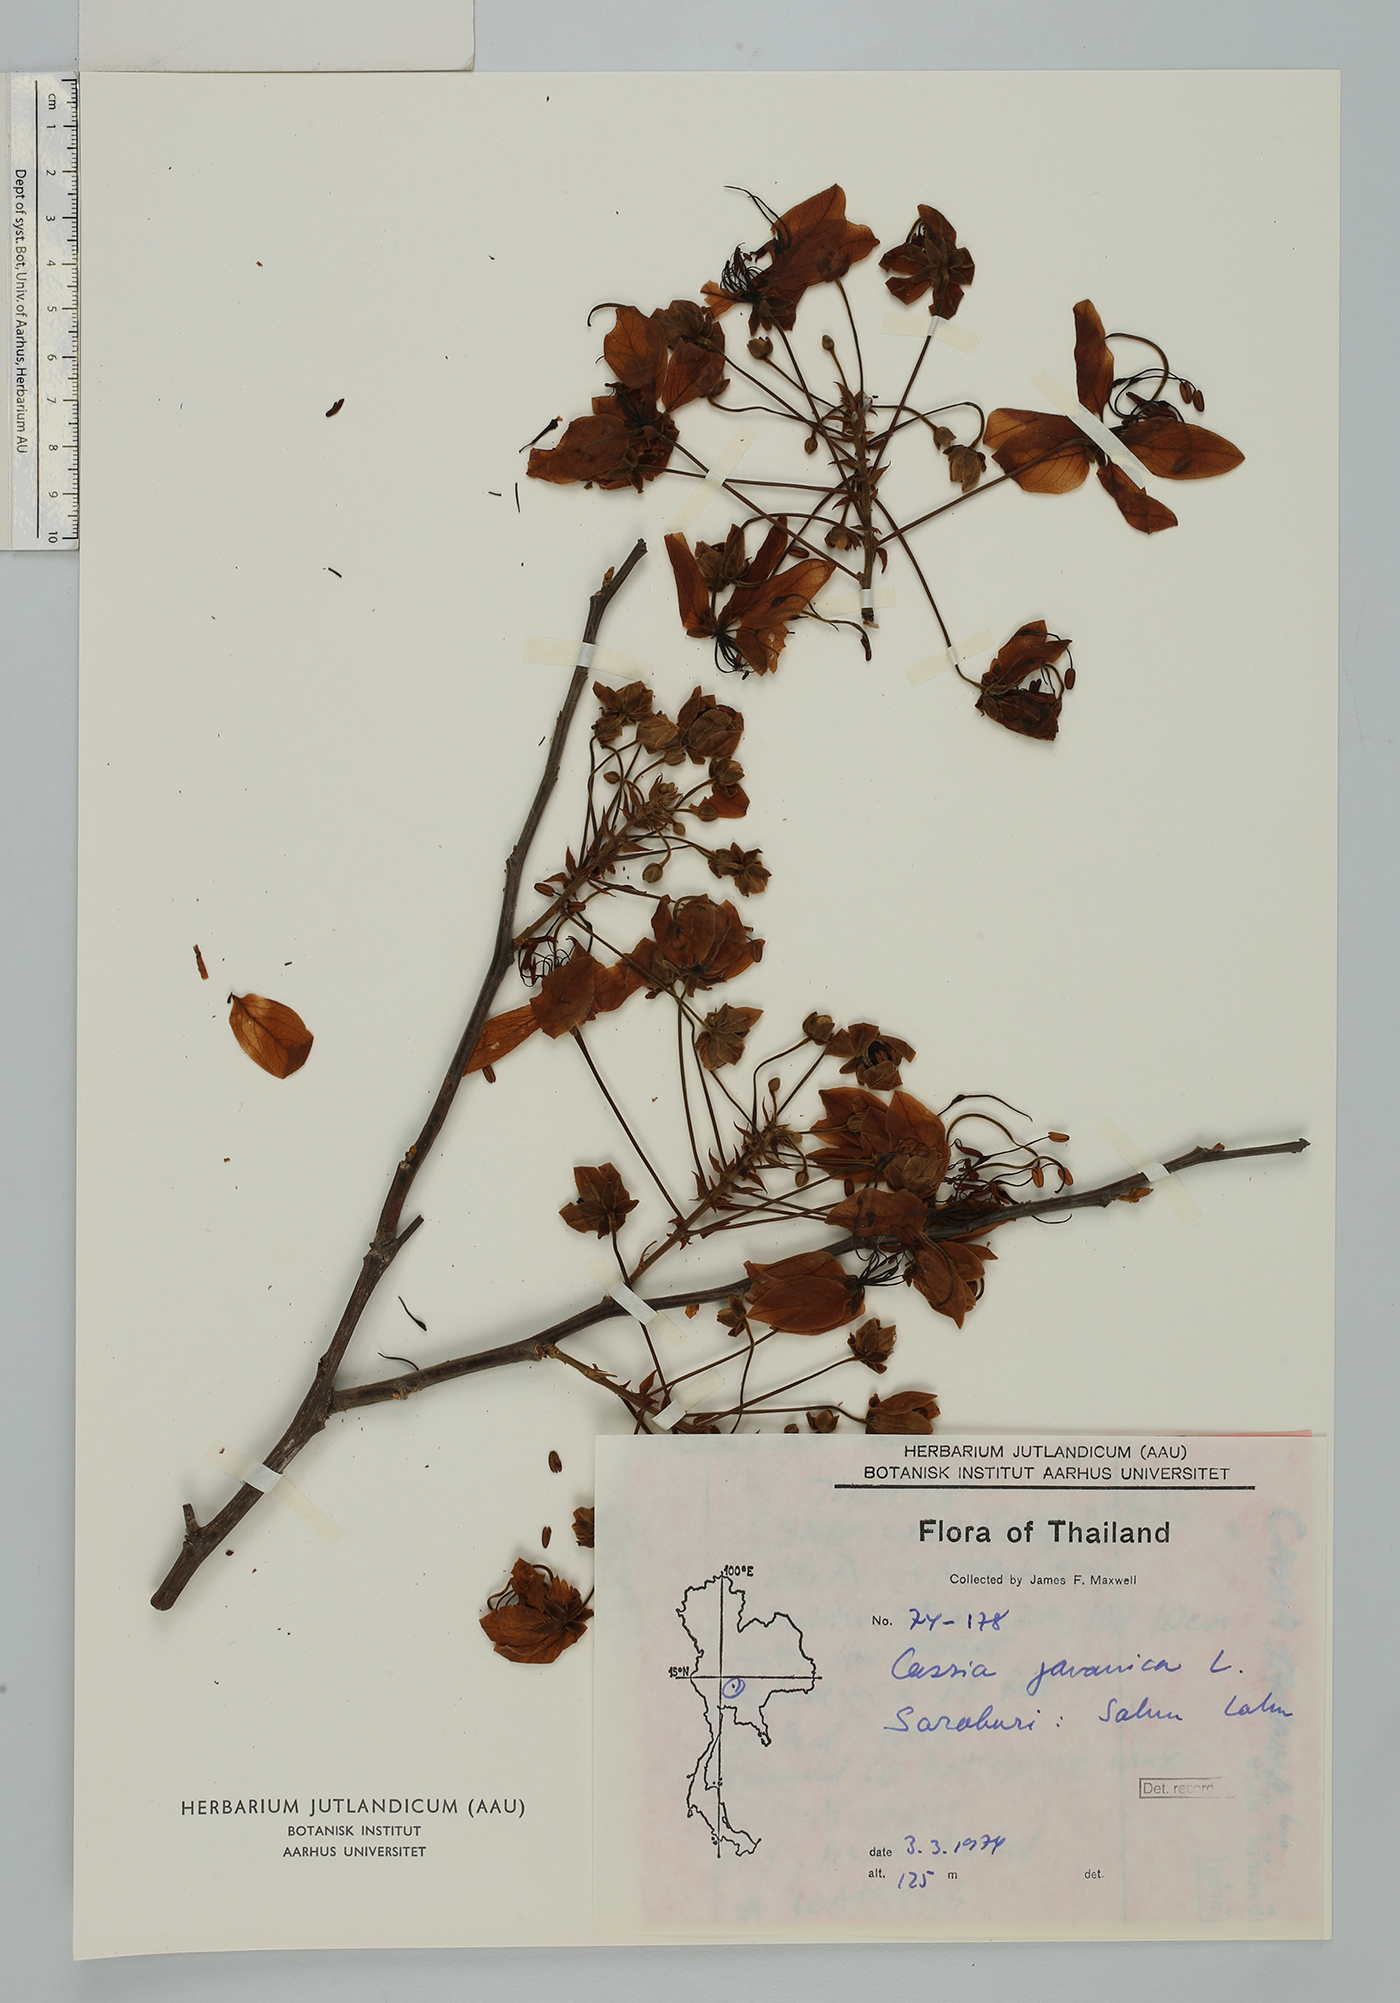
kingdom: Plantae
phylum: Tracheophyta
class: Magnoliopsida
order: Fabales
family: Fabaceae
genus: Cassia
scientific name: Cassia javanica
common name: Apple blossom
